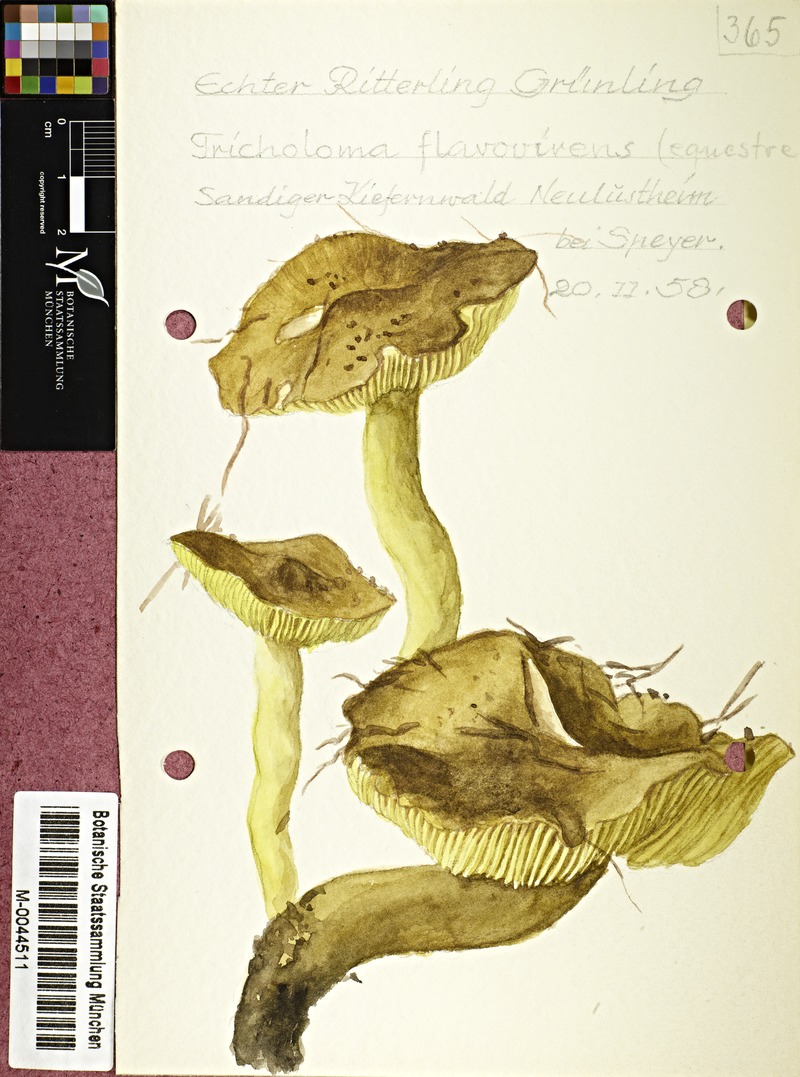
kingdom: Fungi
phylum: Basidiomycota
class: Agaricomycetes
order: Agaricales
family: Tricholomataceae
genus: Tricholoma
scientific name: Tricholoma equestre
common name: Yellow knight
